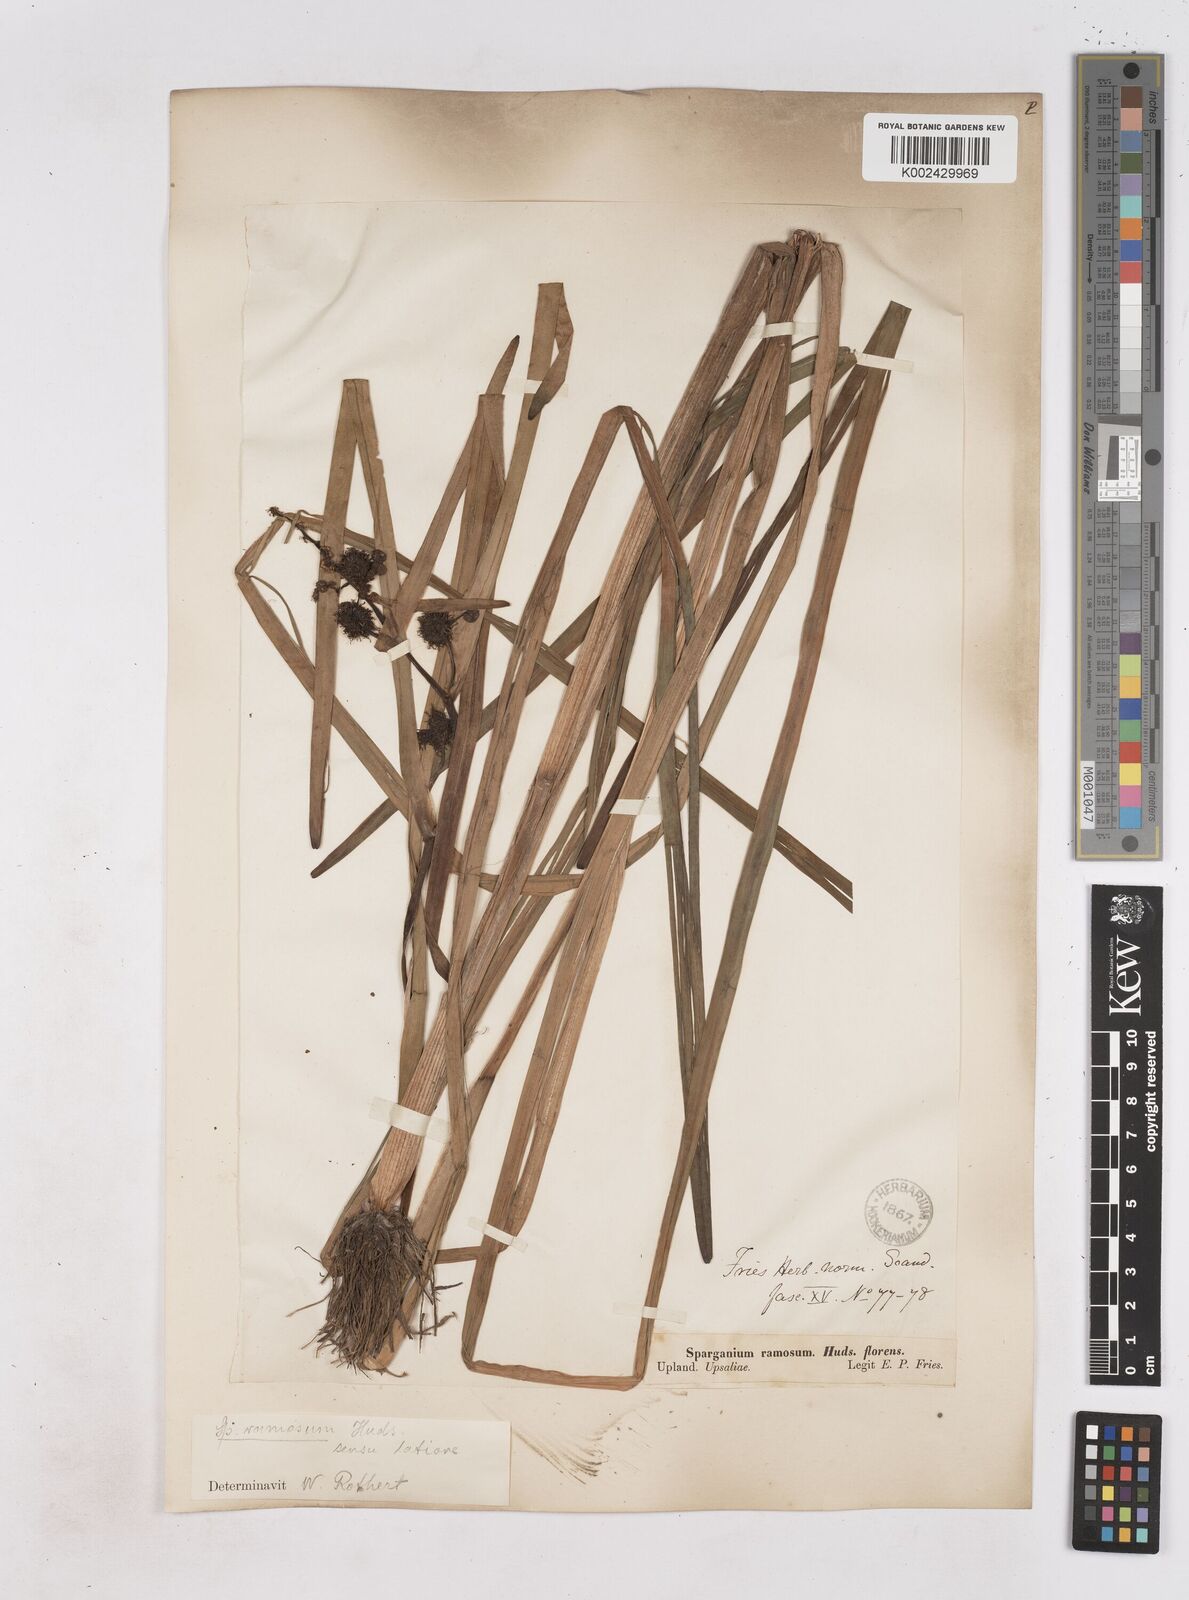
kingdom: Plantae
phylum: Tracheophyta
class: Liliopsida
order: Poales
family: Typhaceae
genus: Sparganium
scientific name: Sparganium erectum
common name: Branched bur-reed
